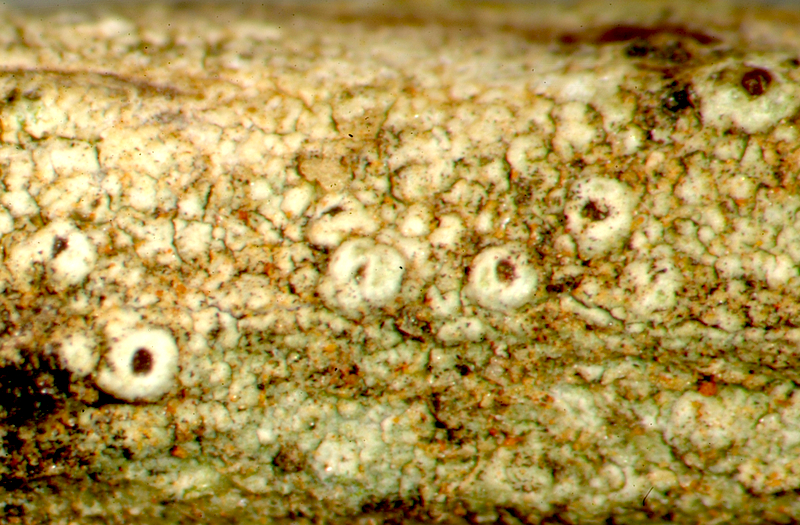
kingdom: Fungi
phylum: Ascomycota
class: Lecanoromycetes
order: Lecanorales
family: Ramalinaceae
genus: Bacidia
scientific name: Bacidia
